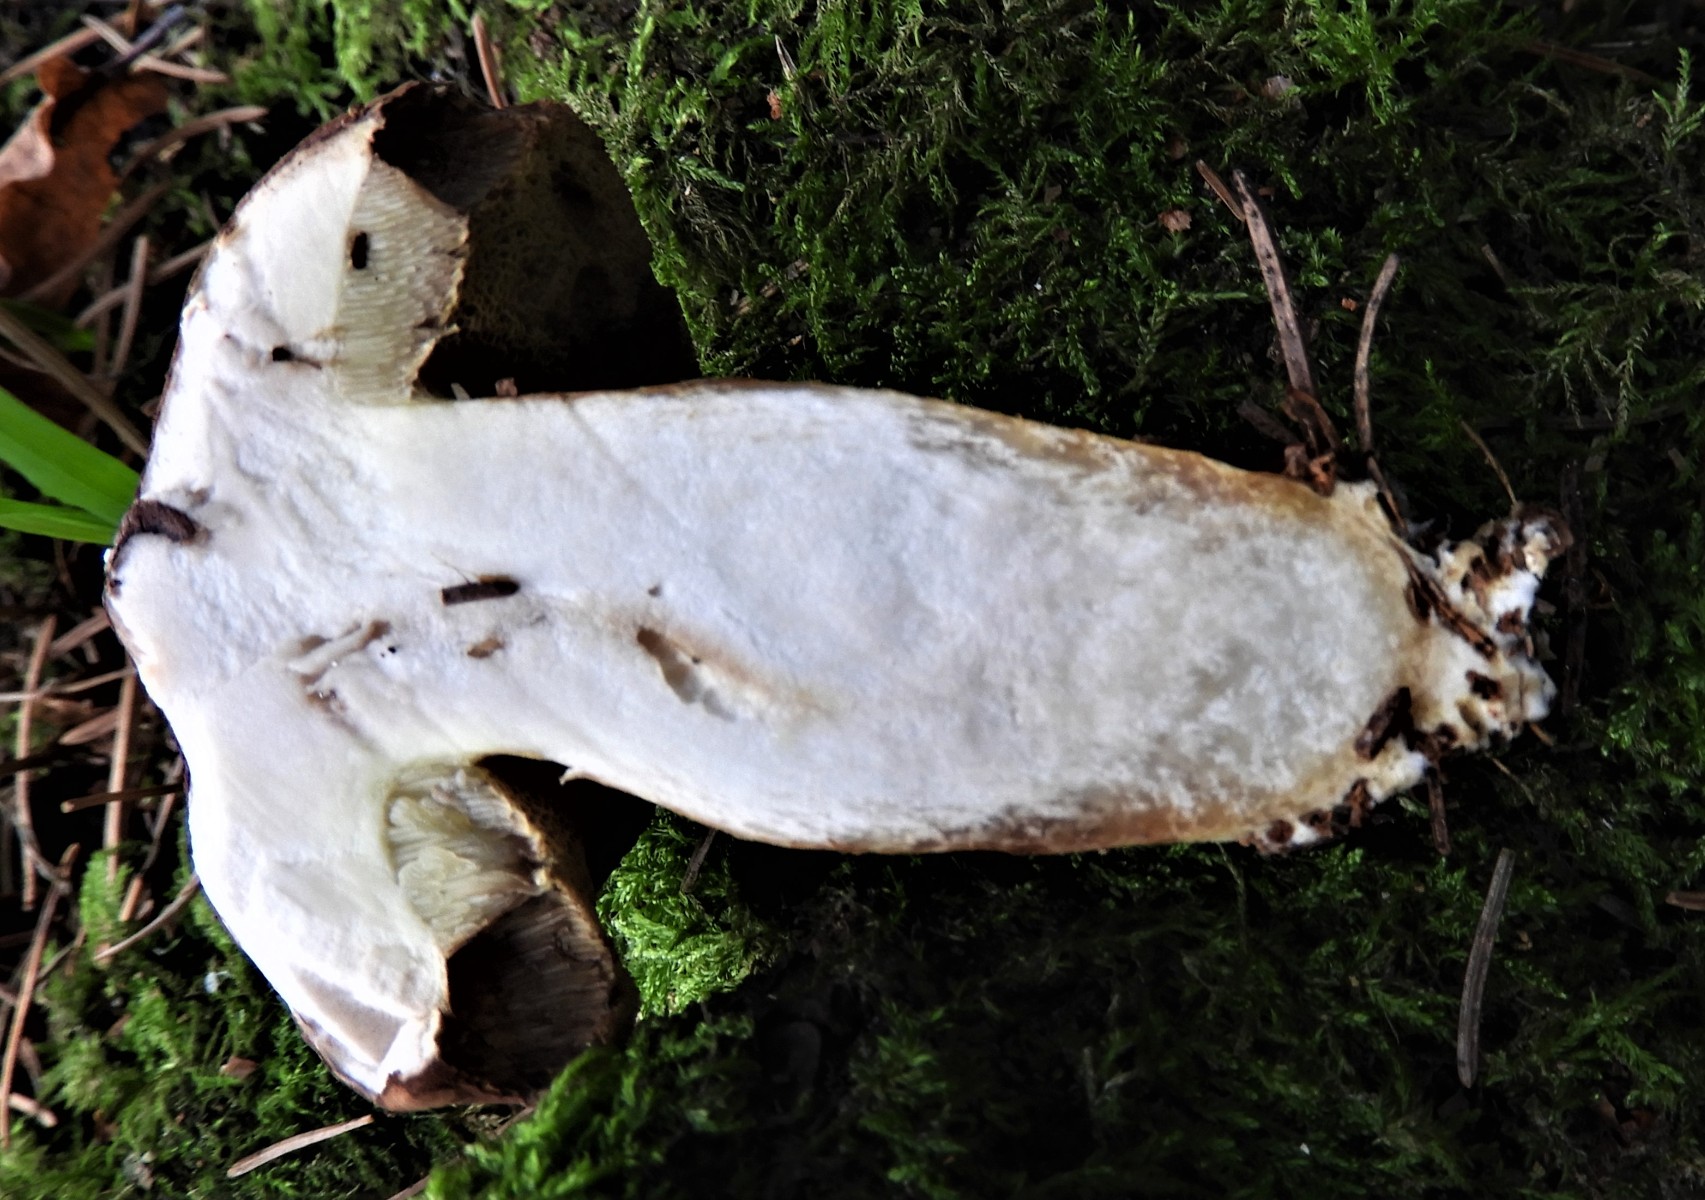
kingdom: Fungi
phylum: Basidiomycota
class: Agaricomycetes
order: Boletales
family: Boletaceae
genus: Imleria
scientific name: Imleria badia
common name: brunstokket rørhat
